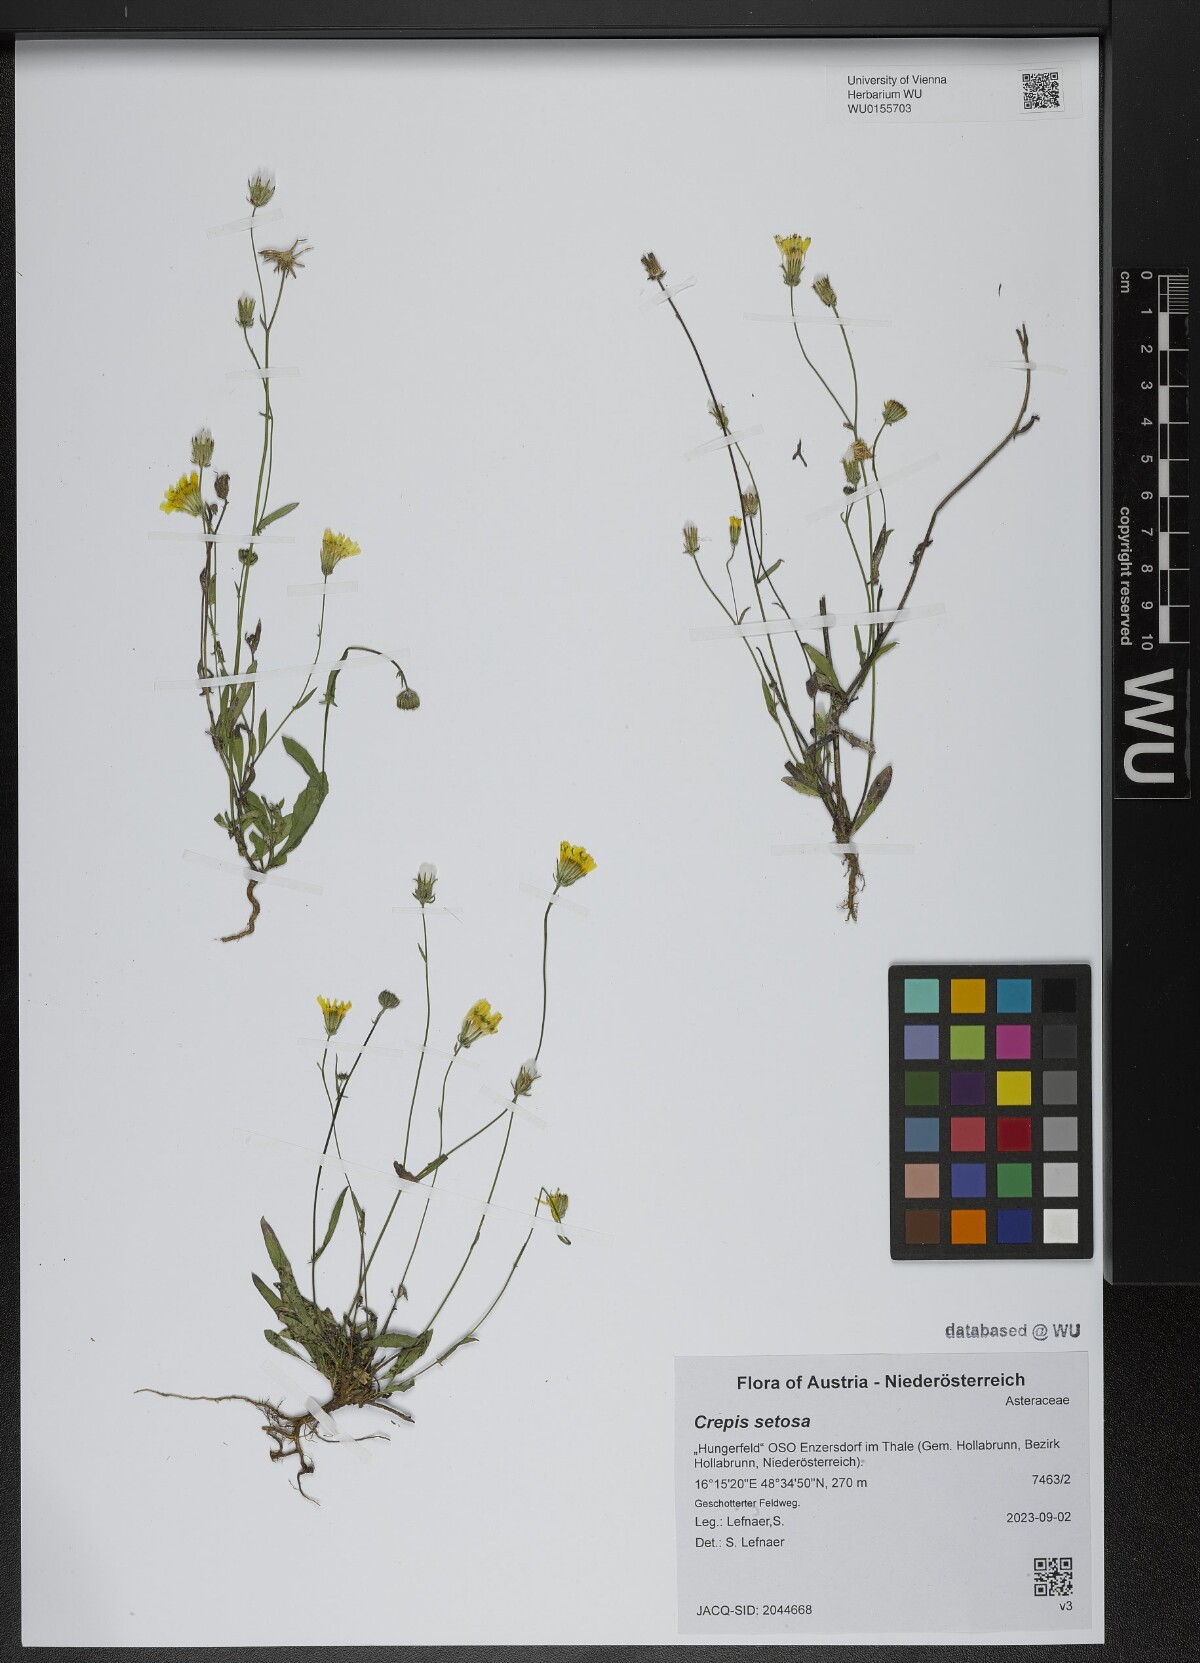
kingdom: Plantae
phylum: Tracheophyta
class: Magnoliopsida
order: Asterales
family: Asteraceae
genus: Crepis
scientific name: Crepis setosa
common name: Bristly hawk's-beard
